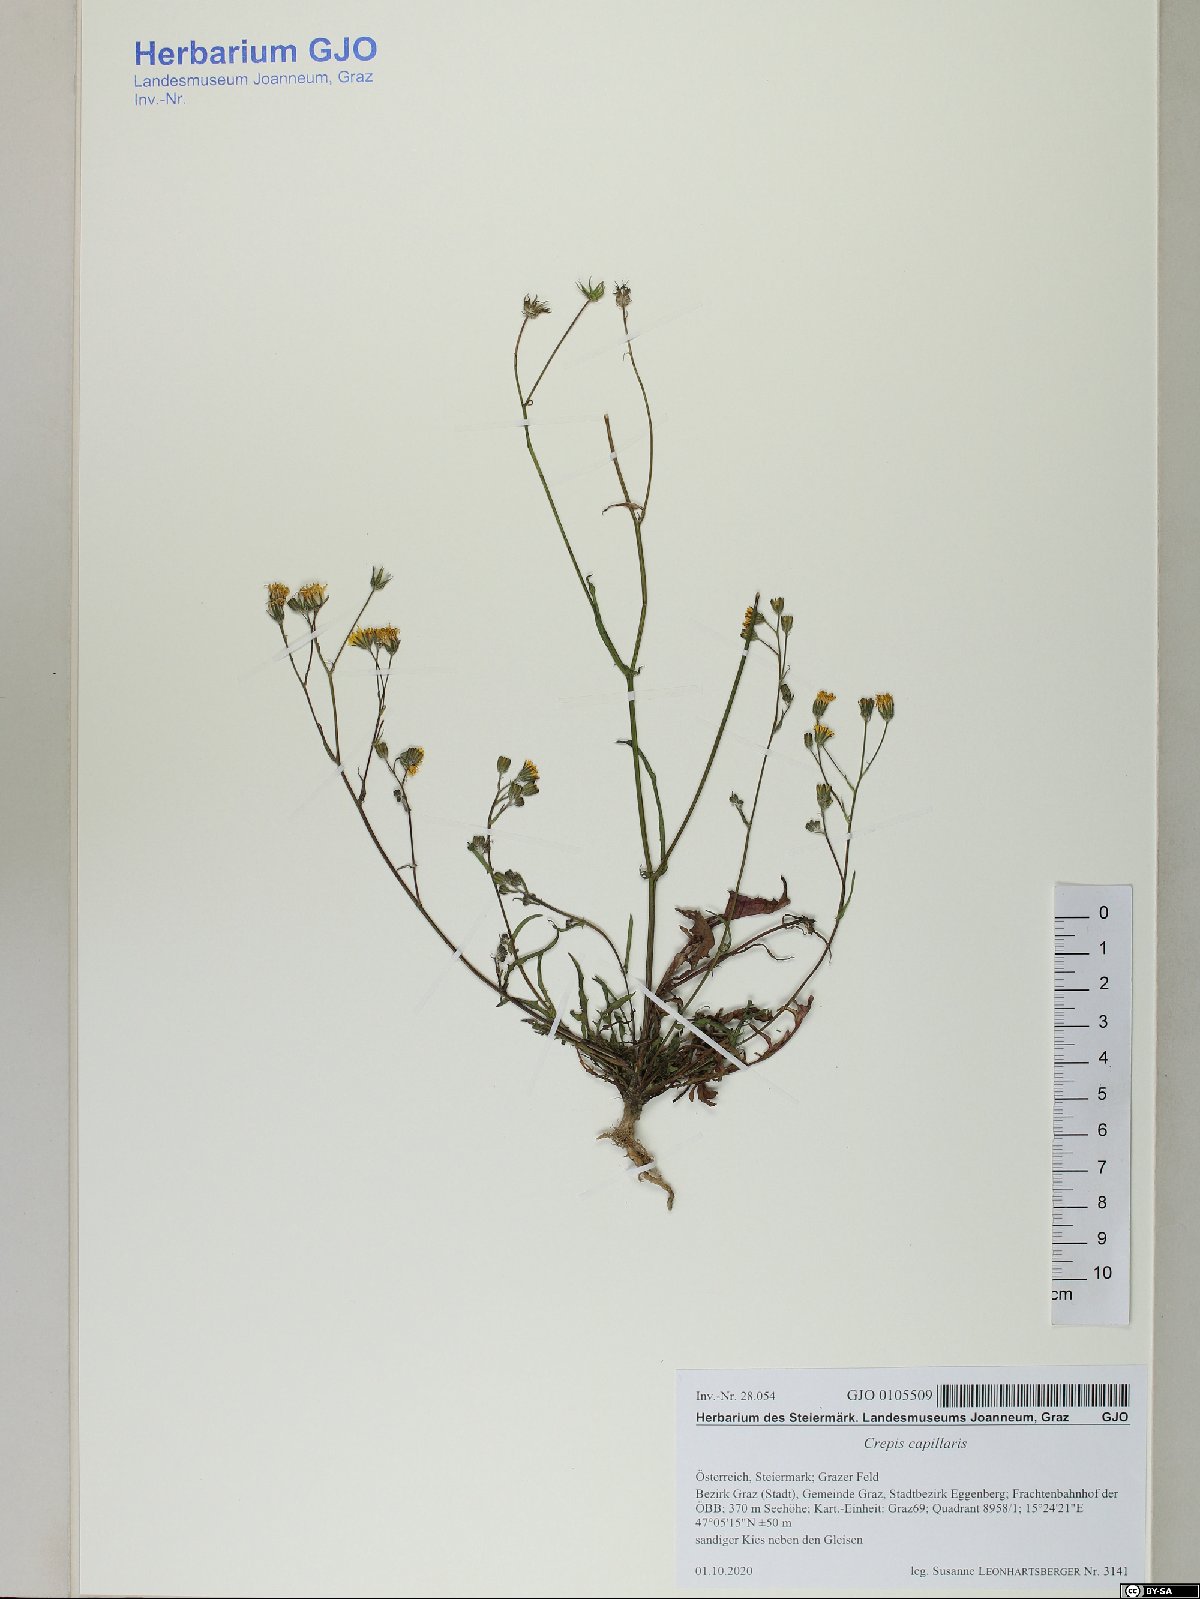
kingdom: Plantae
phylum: Tracheophyta
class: Magnoliopsida
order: Asterales
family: Asteraceae
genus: Crepis
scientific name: Crepis capillaris
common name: Smooth hawksbeard
